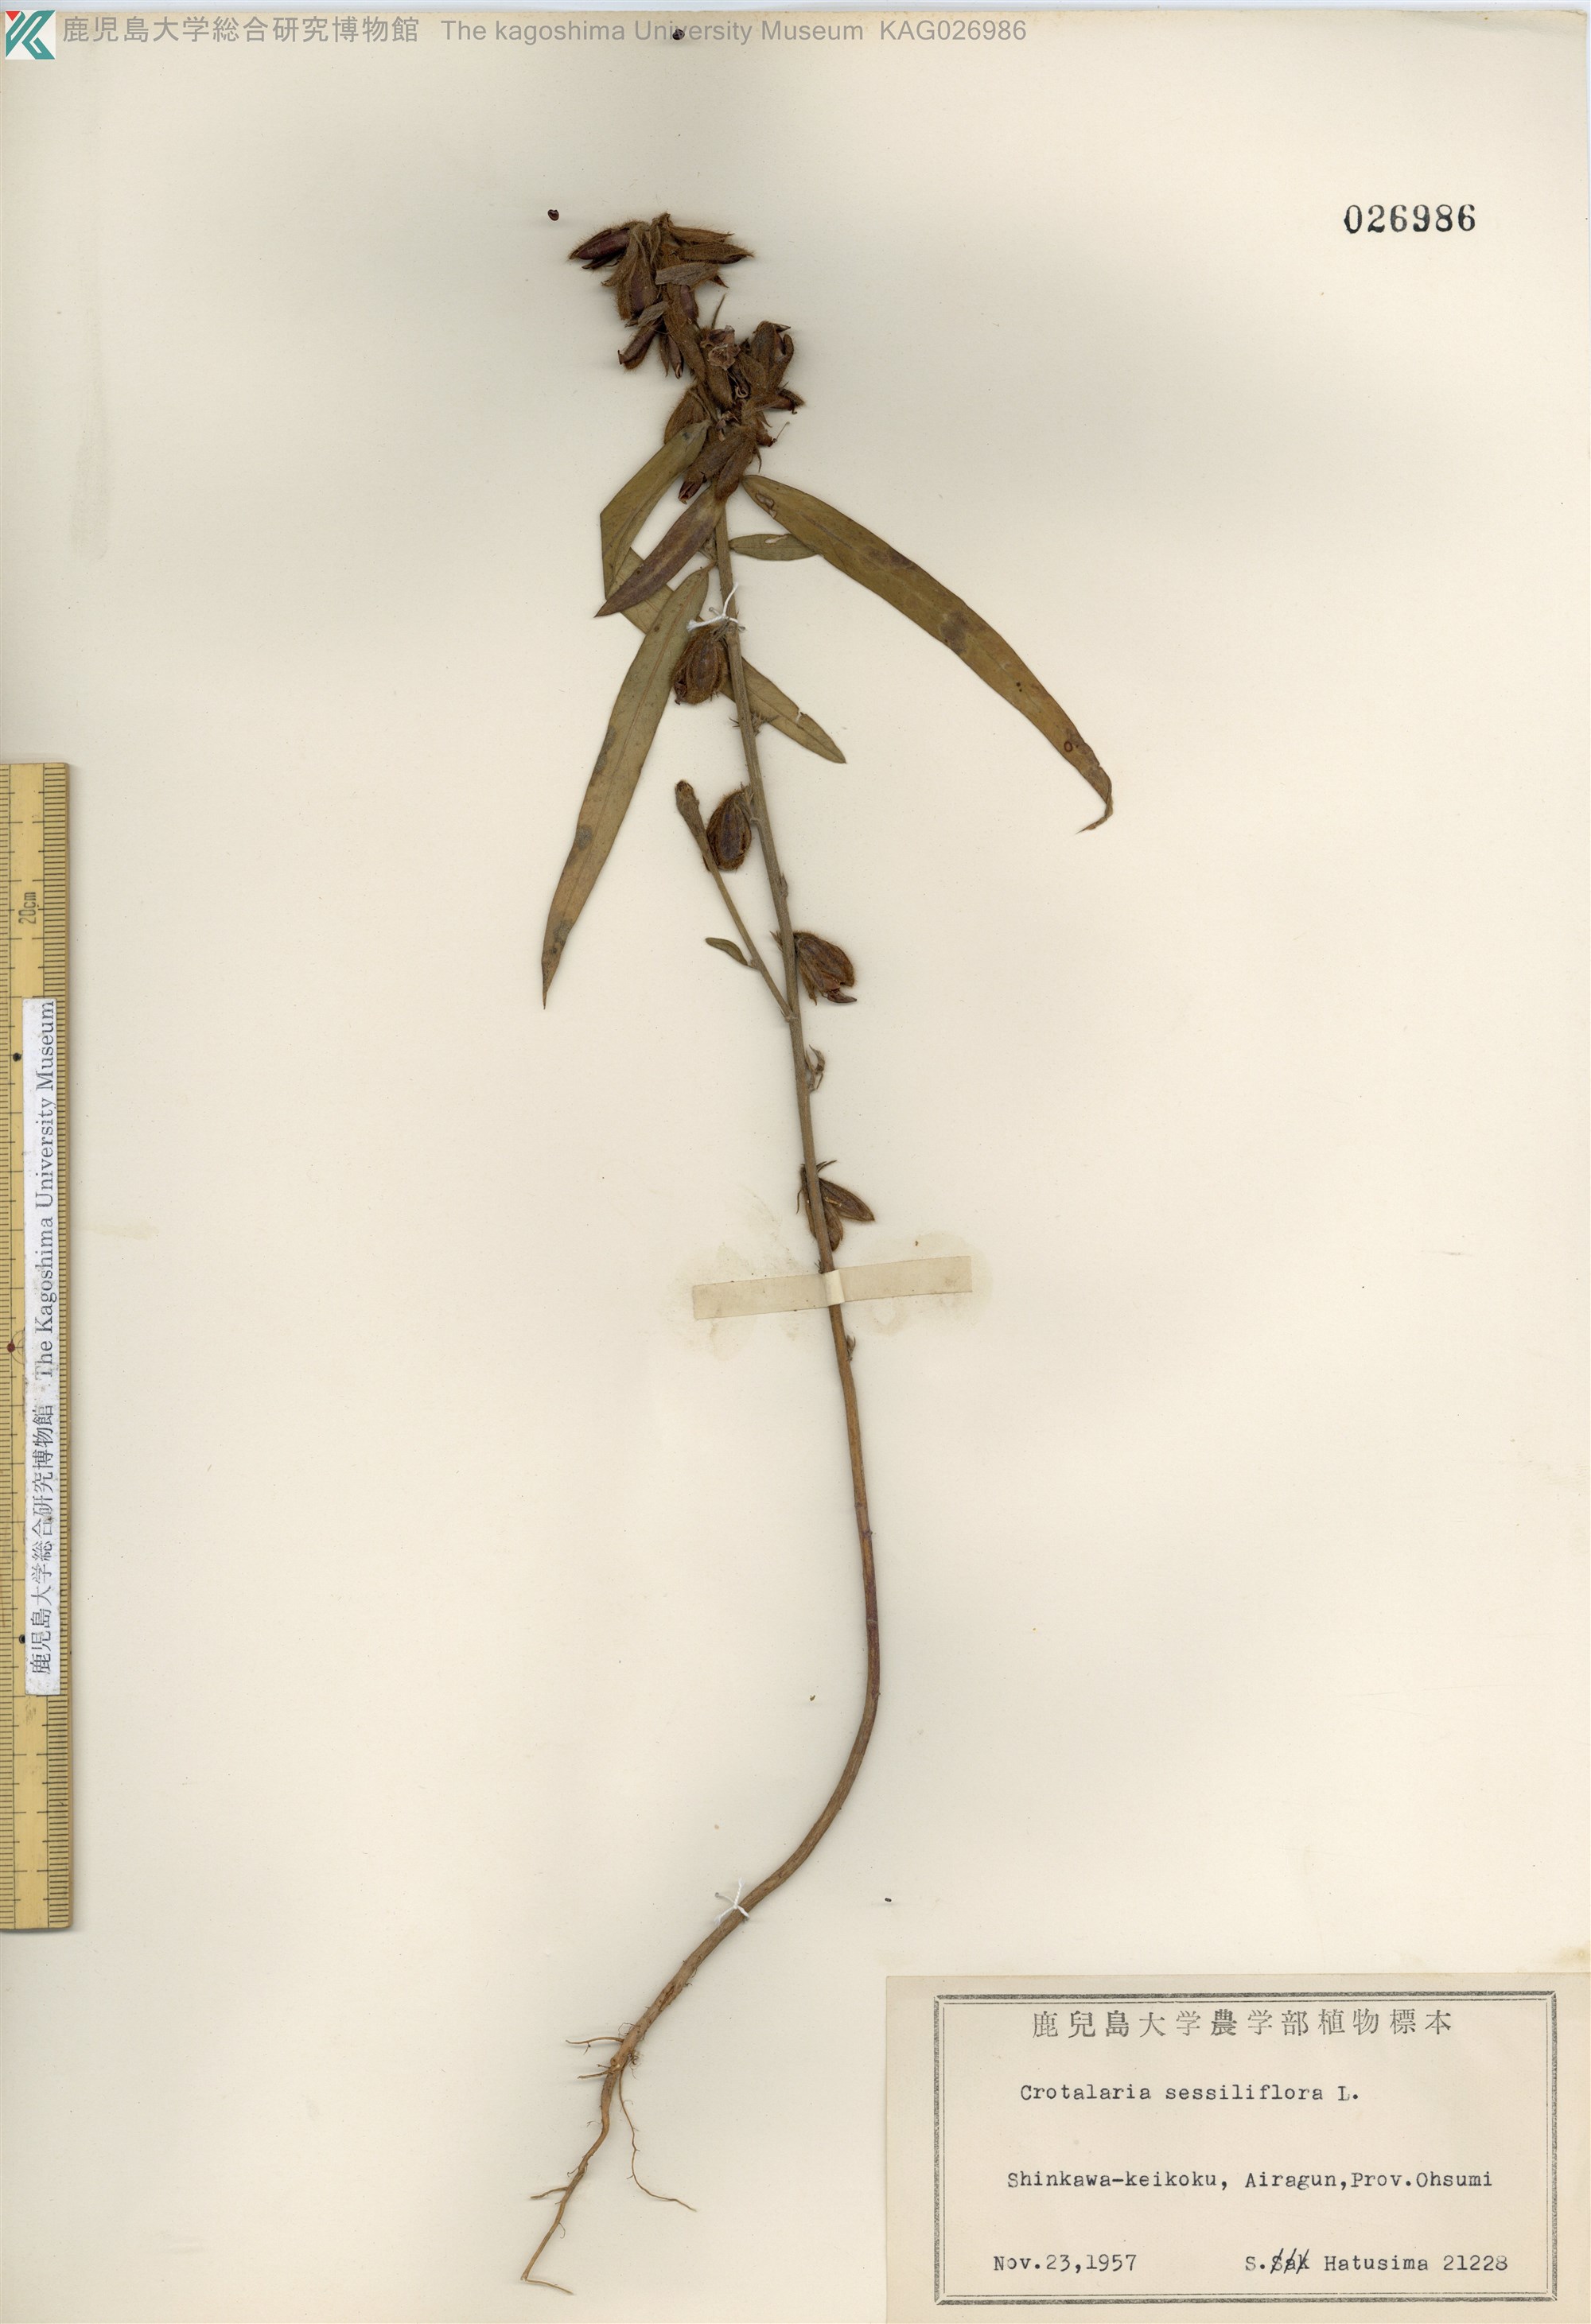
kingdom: Plantae
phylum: Tracheophyta
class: Magnoliopsida
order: Fabales
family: Fabaceae
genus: Crotalaria
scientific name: Crotalaria sessiliflora
